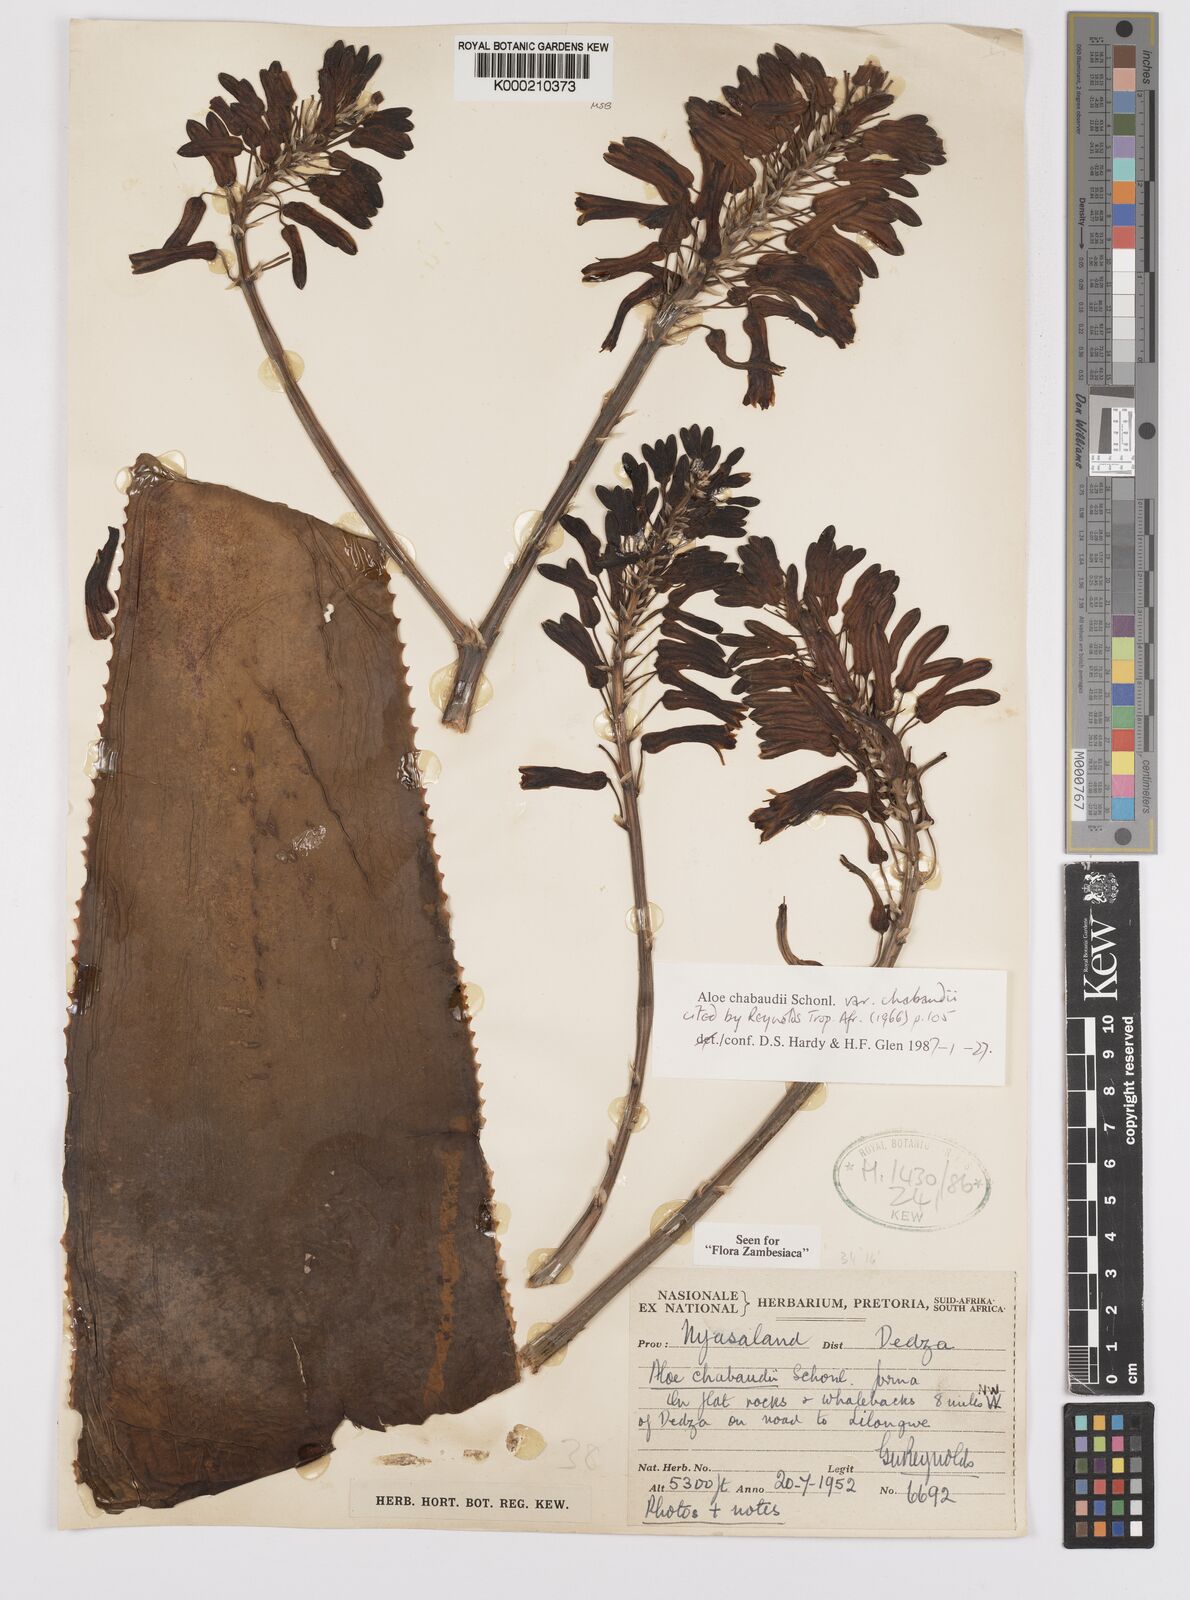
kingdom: Plantae
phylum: Tracheophyta
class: Liliopsida
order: Asparagales
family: Asphodelaceae
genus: Aloe
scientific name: Aloe chabaudii
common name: Chabaud's aloe
